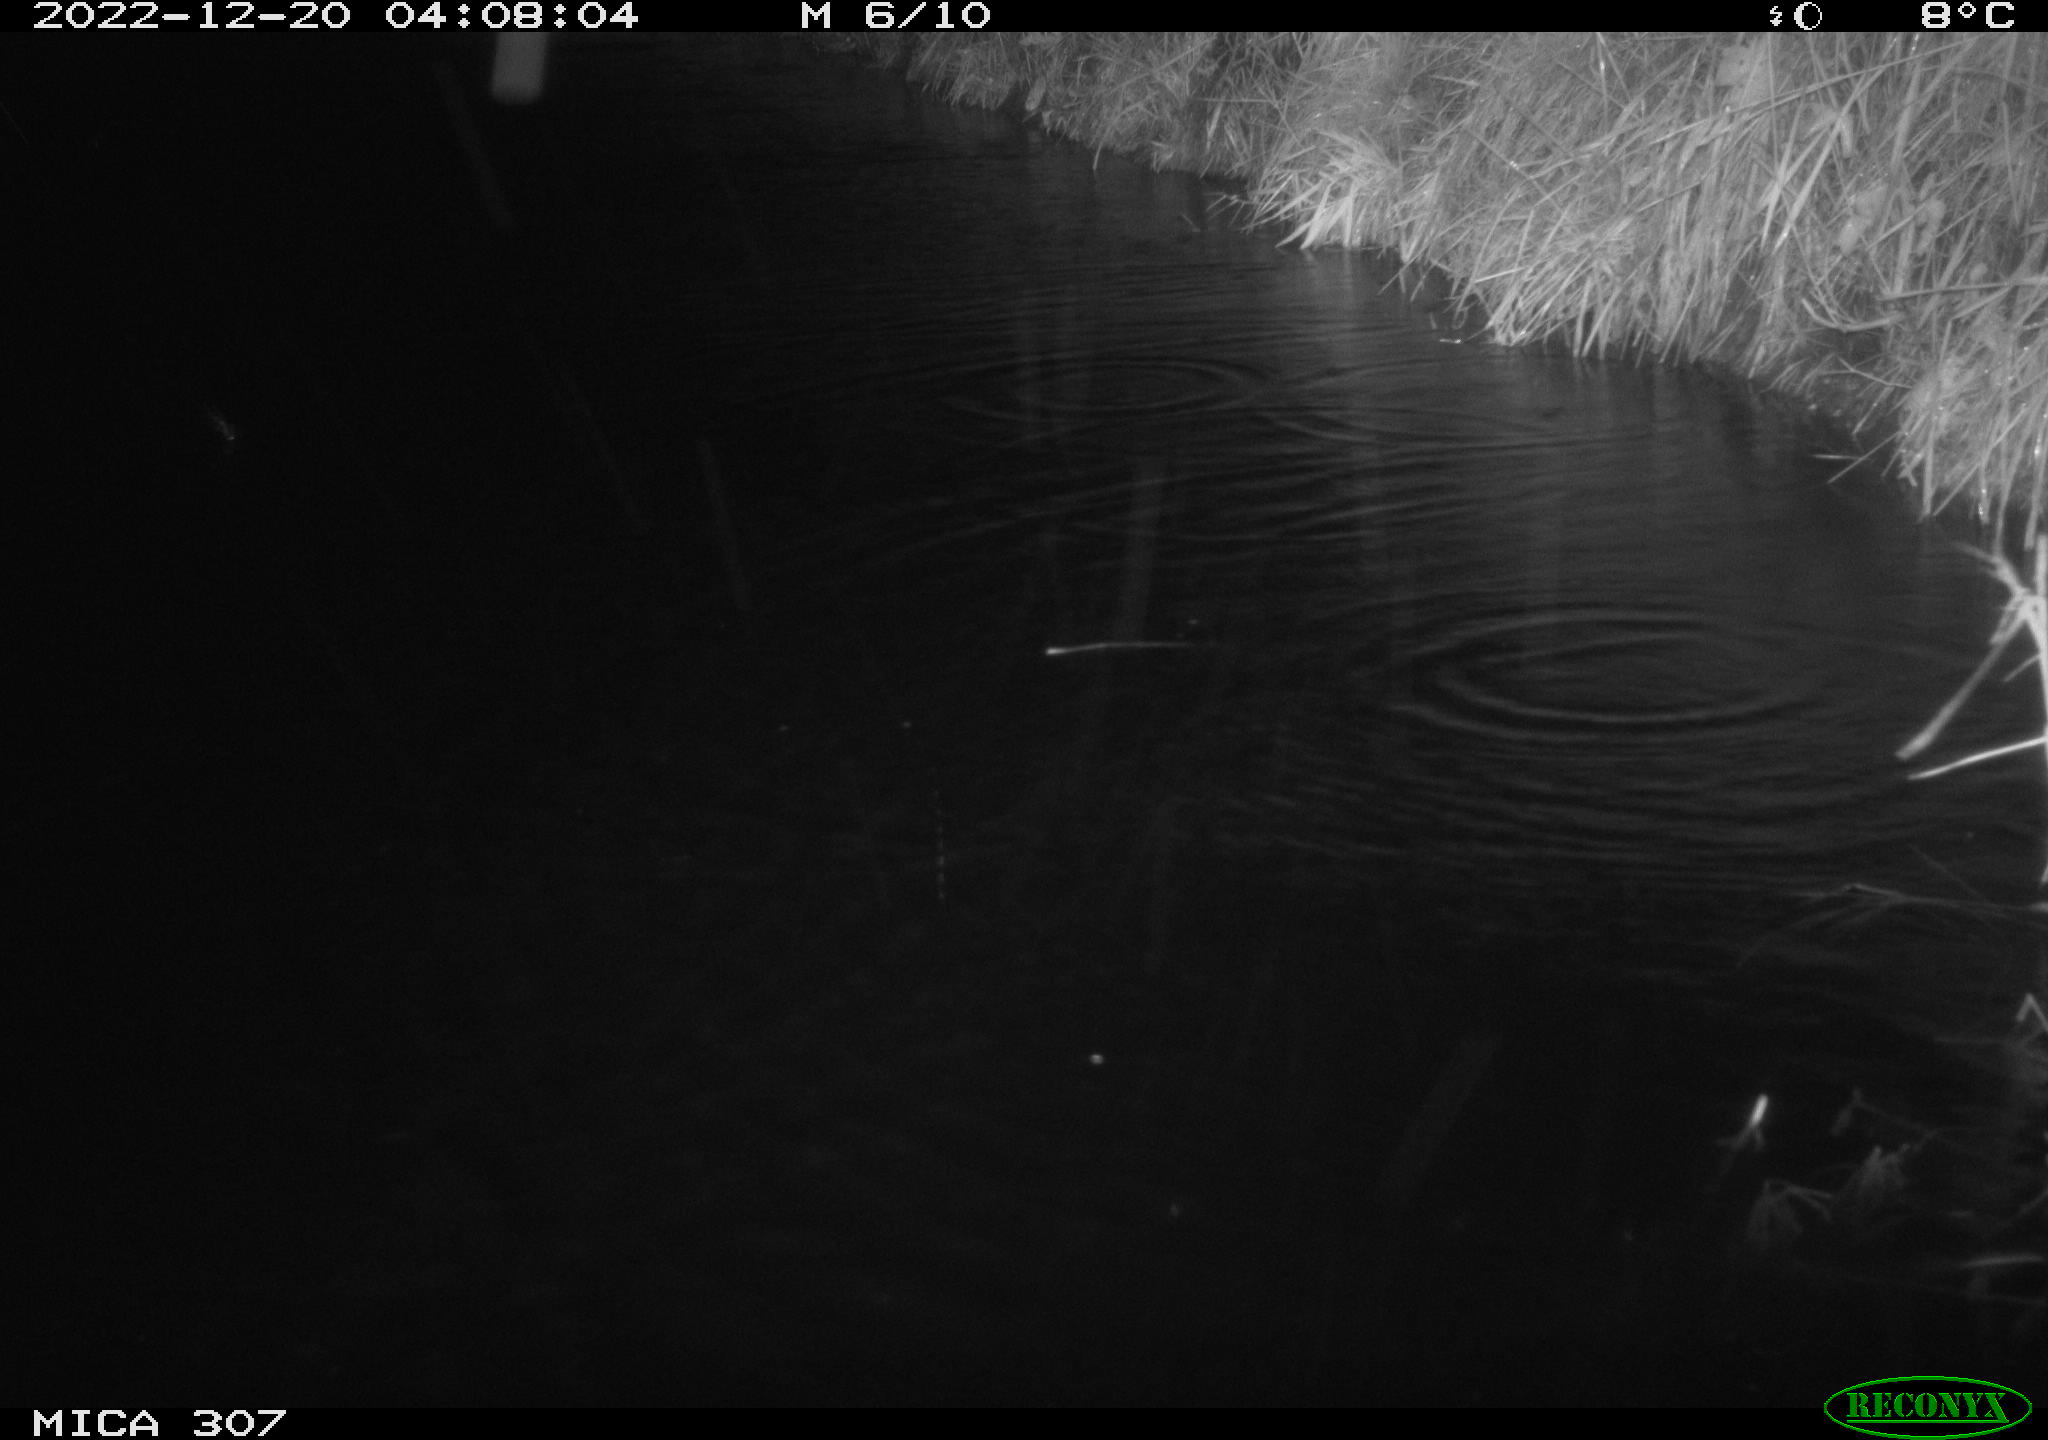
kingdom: Animalia
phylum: Chordata
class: Mammalia
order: Rodentia
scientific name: Rodentia
